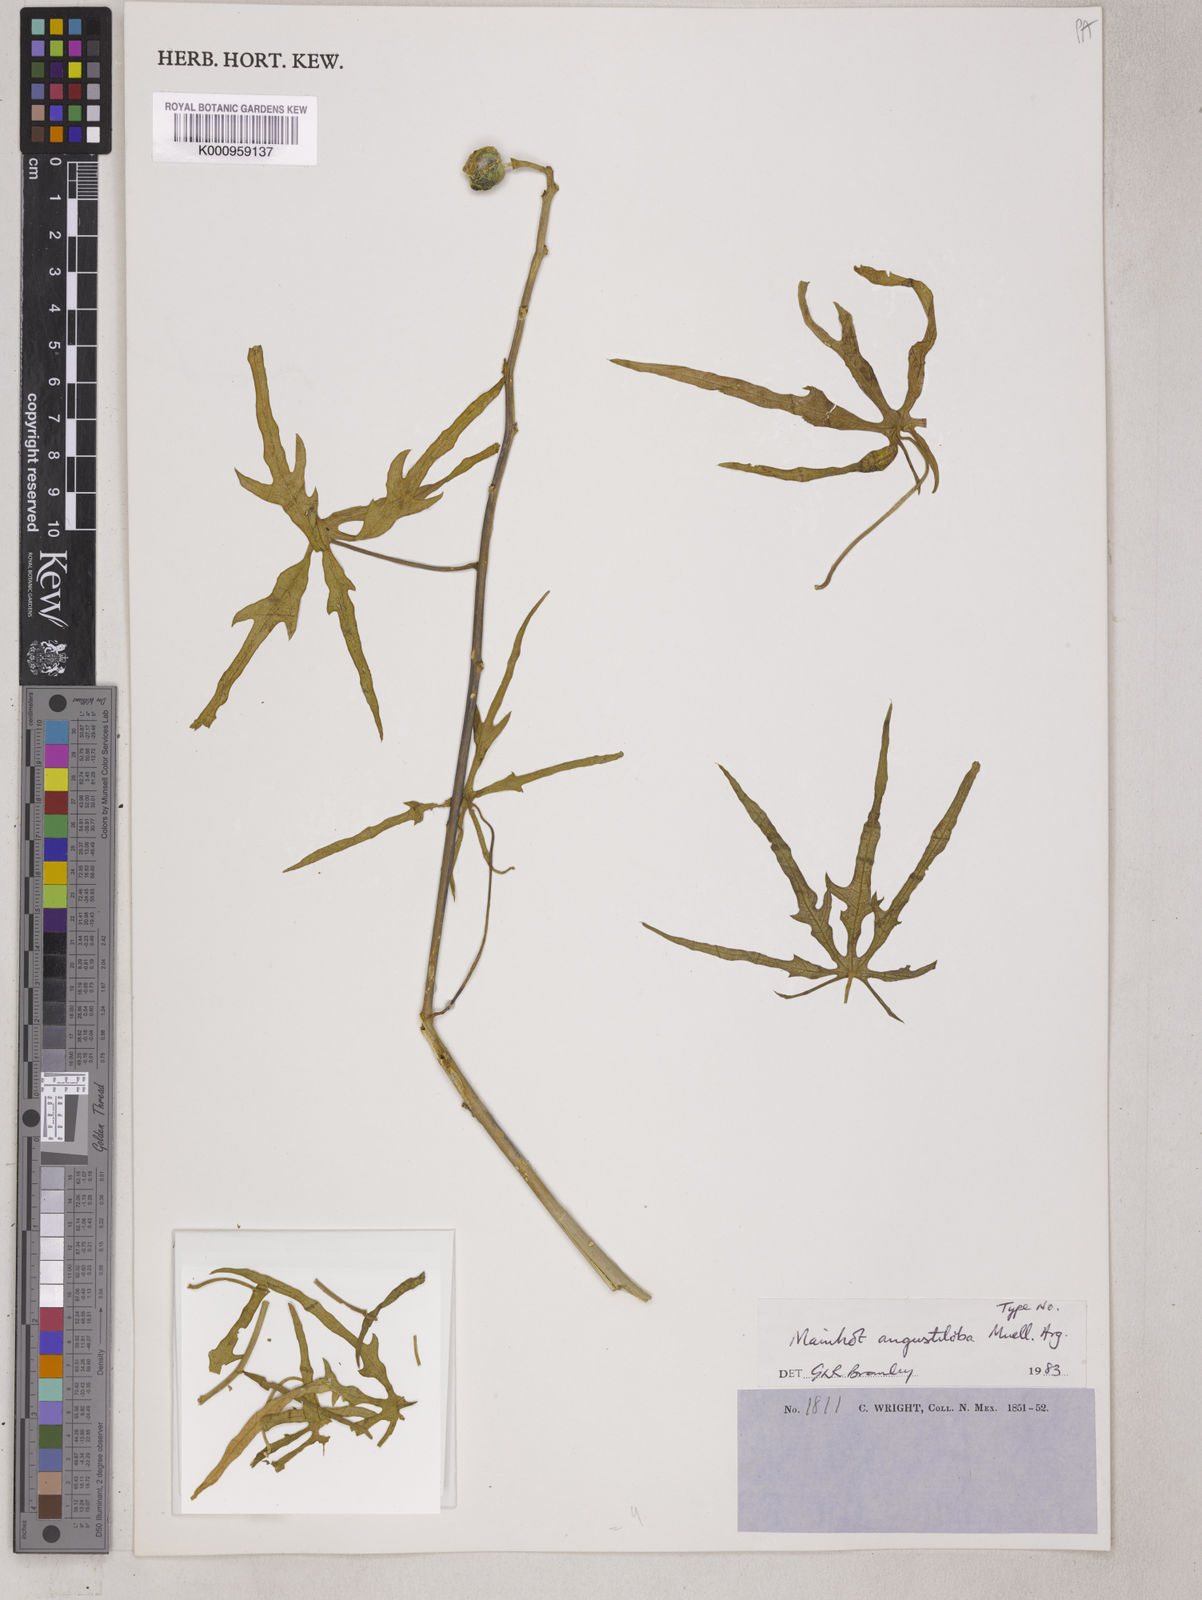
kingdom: Plantae
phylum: Tracheophyta
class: Magnoliopsida
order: Malpighiales
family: Euphorbiaceae
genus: Manihot
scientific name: Manihot
